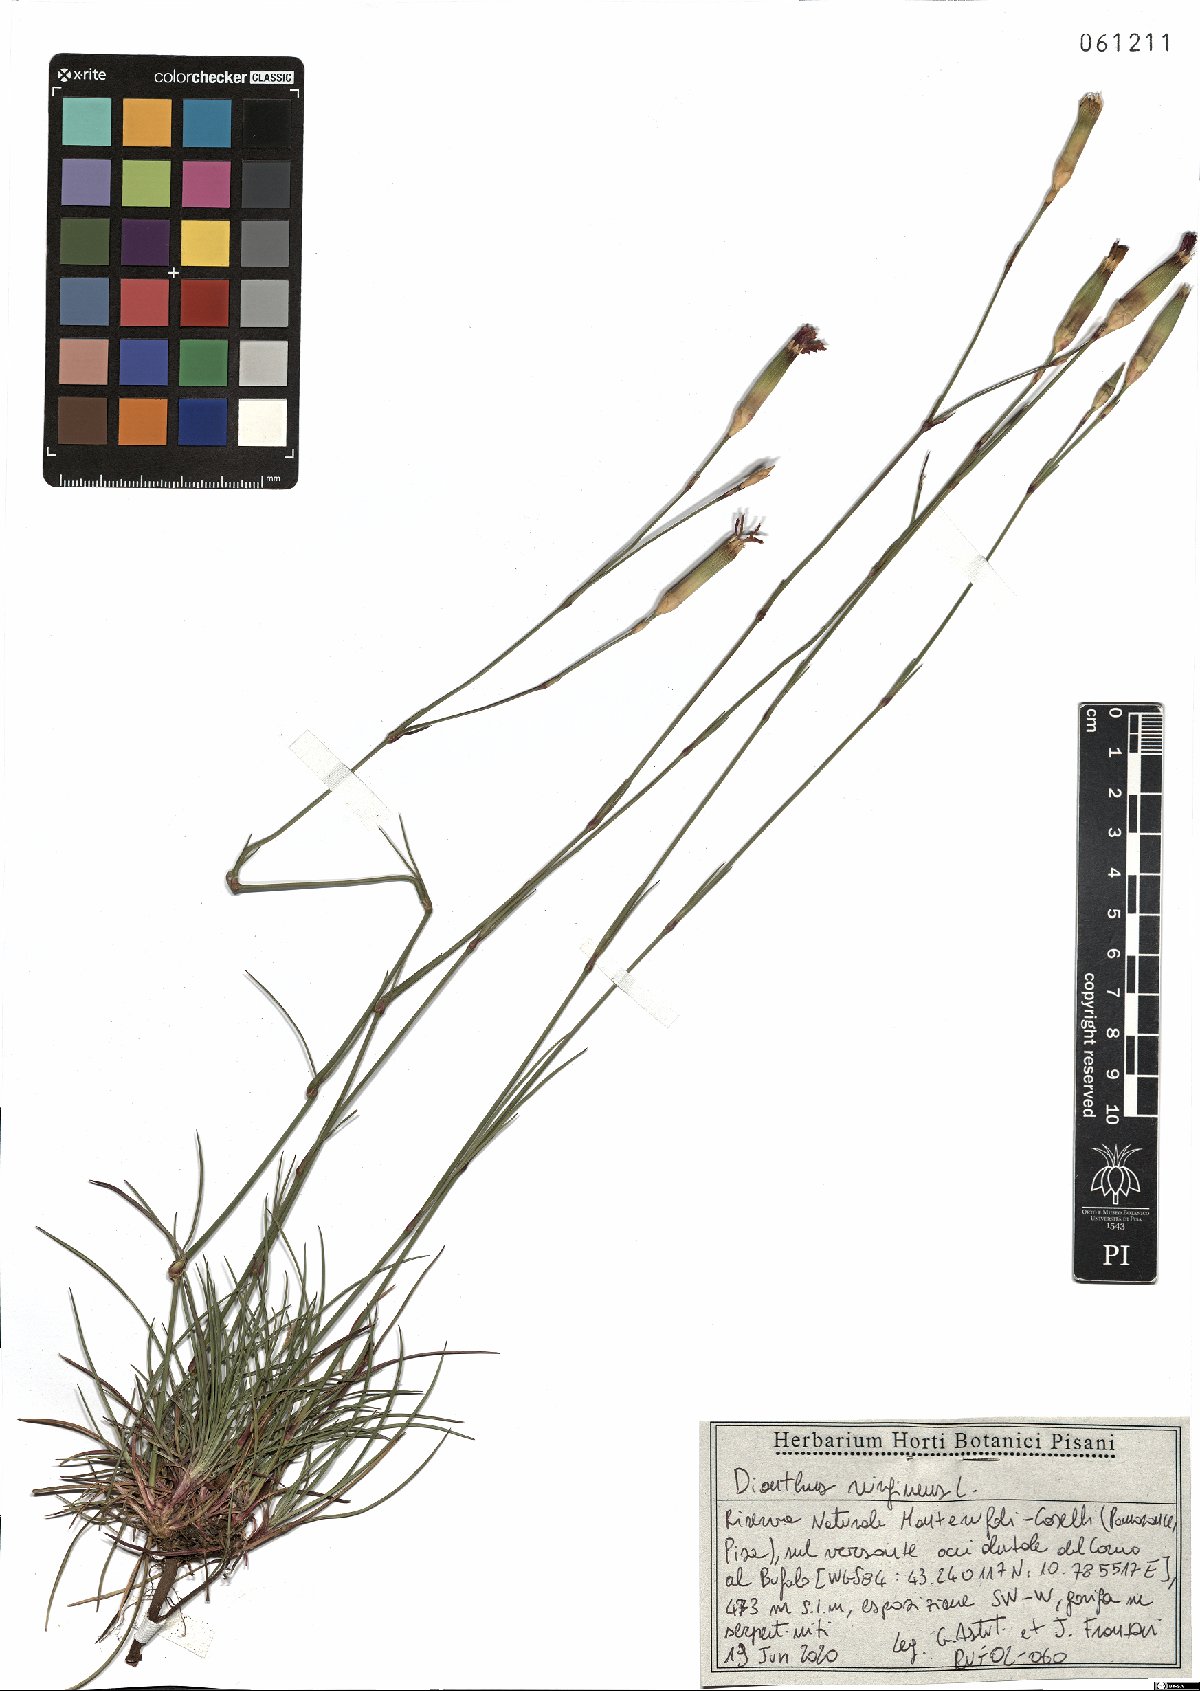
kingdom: Plantae
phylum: Tracheophyta
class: Magnoliopsida
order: Caryophyllales
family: Caryophyllaceae
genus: Dianthus
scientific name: Dianthus virgineus
